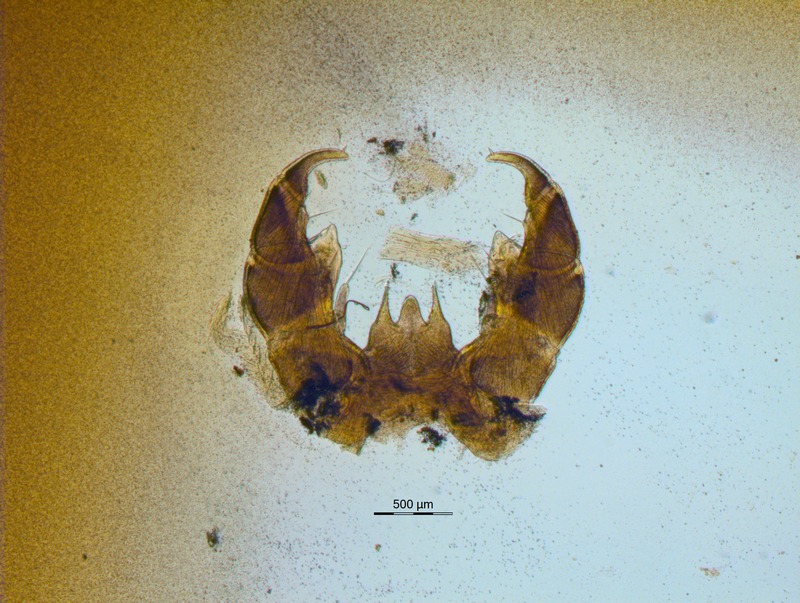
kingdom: Animalia
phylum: Arthropoda
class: Diplopoda
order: Glomerida
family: Glomeridae
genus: Glomeris
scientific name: Glomeris primordialis
